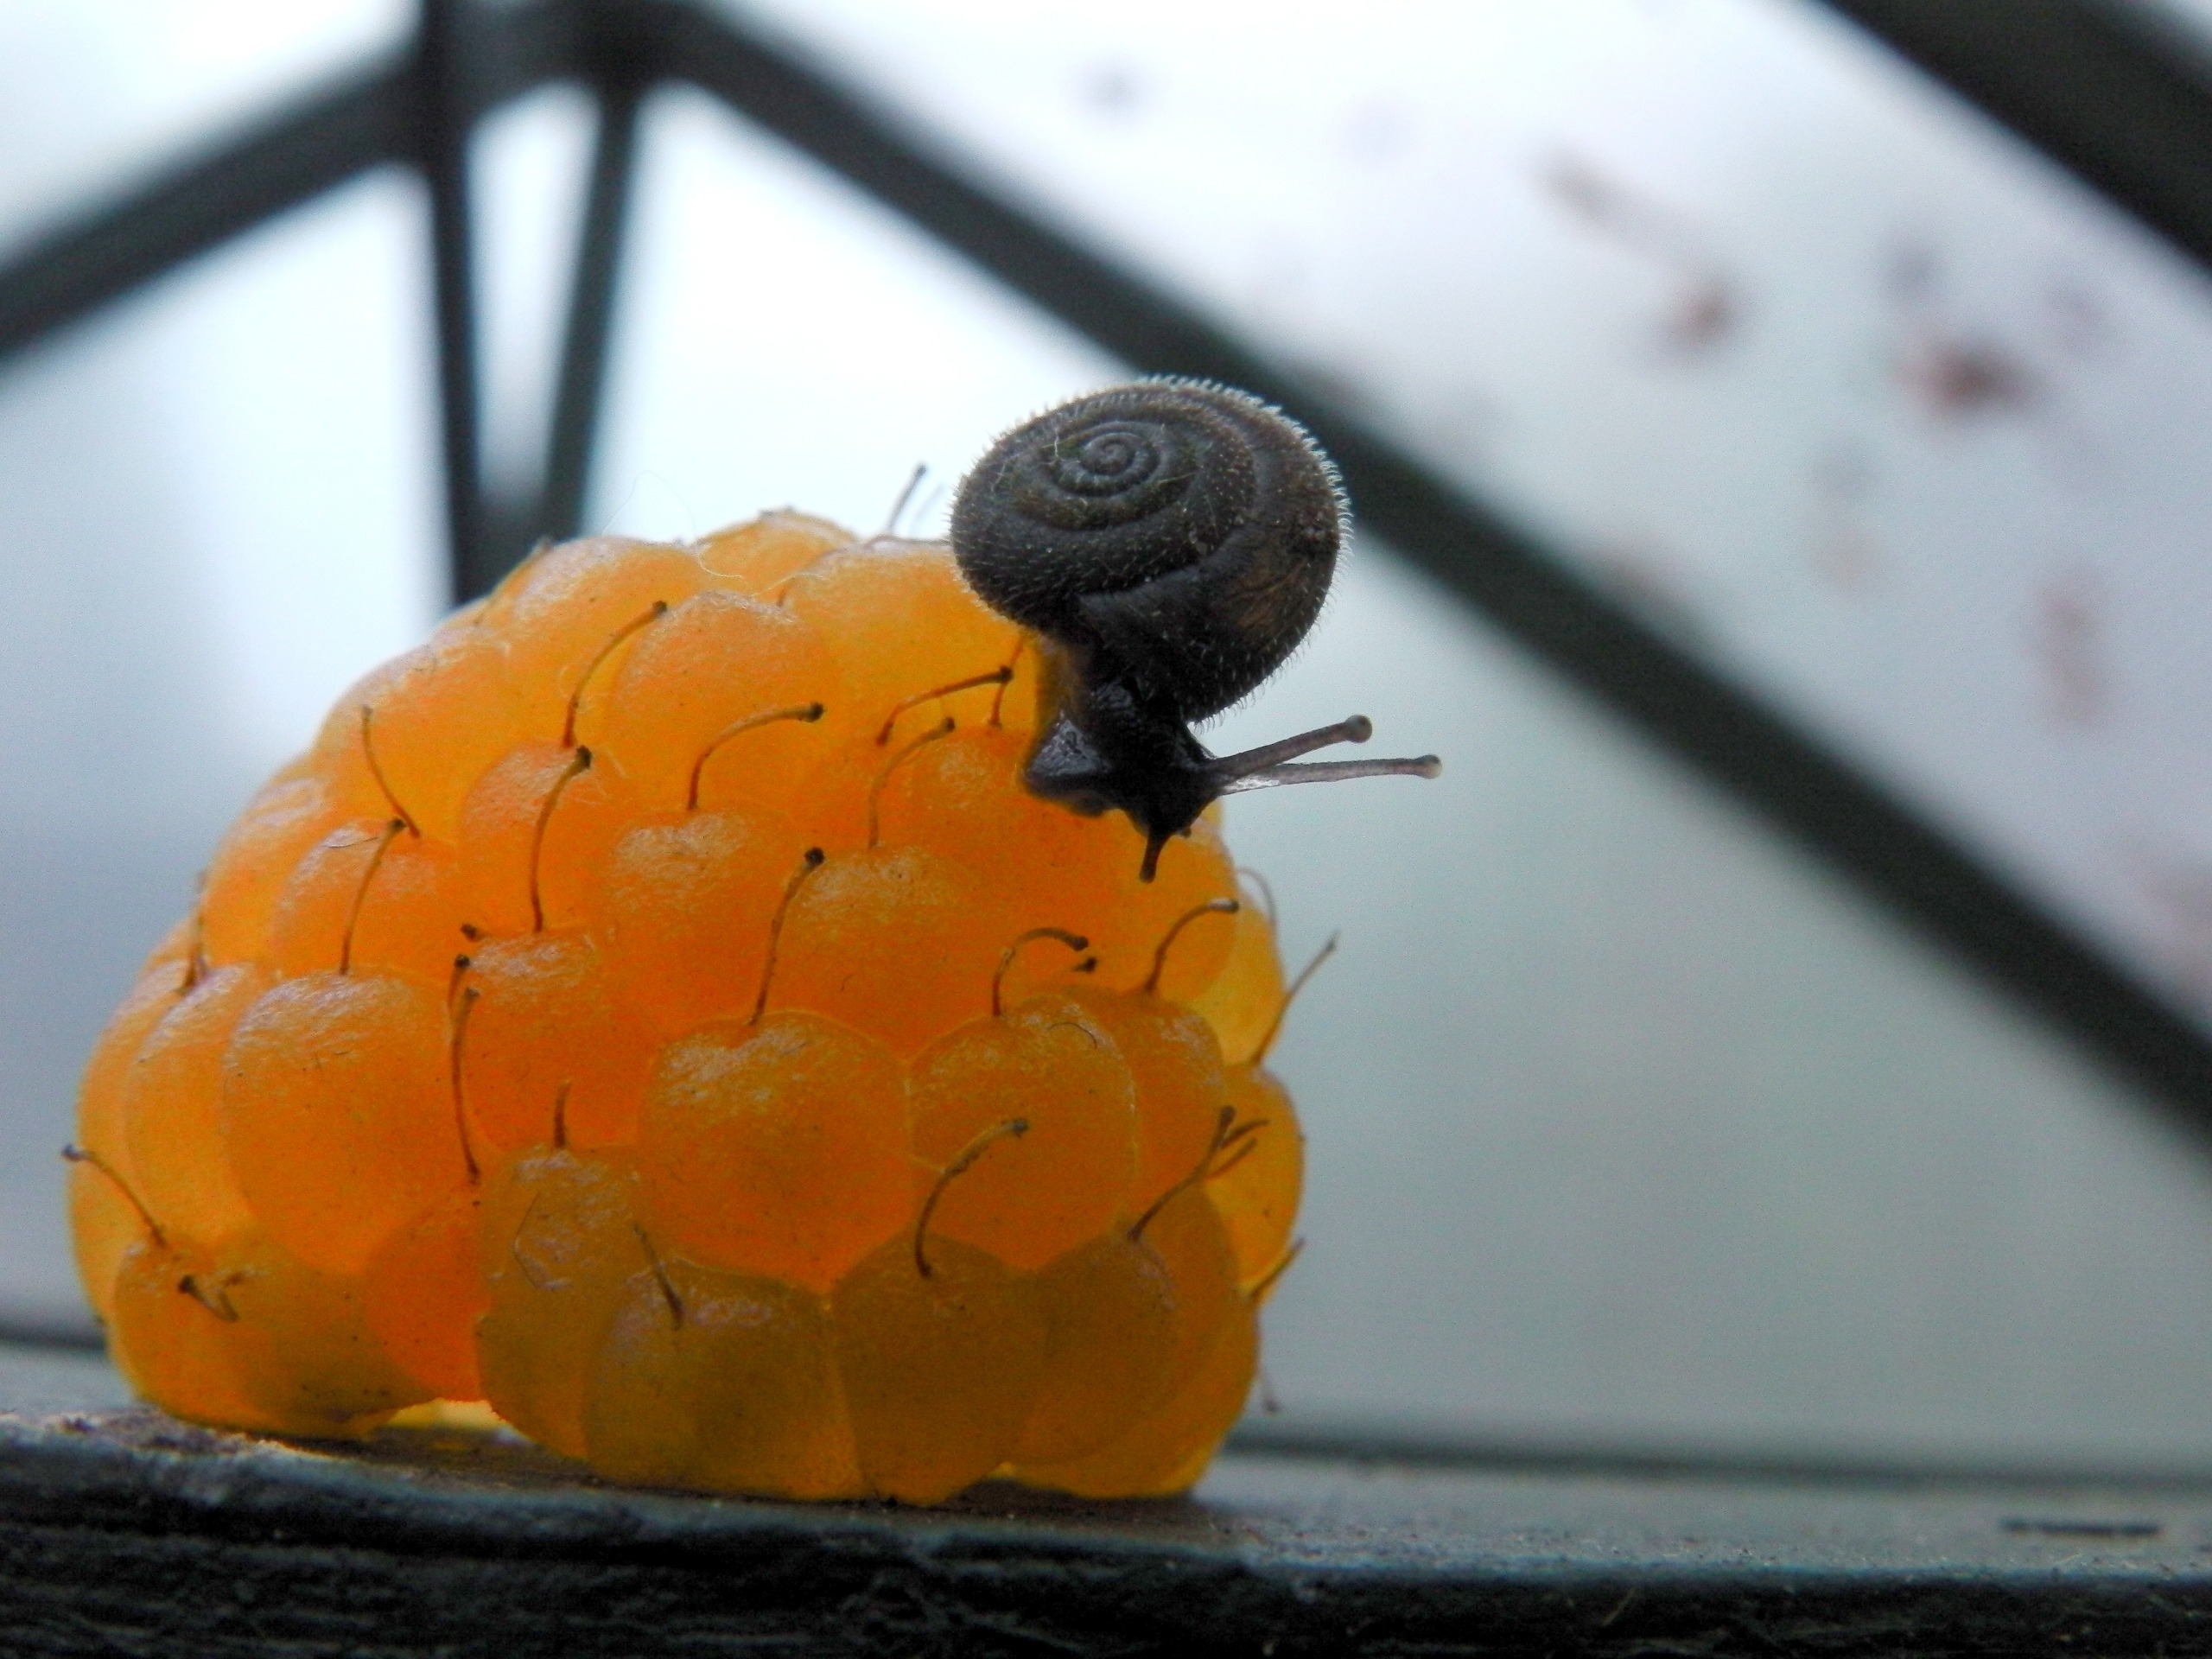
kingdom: Animalia
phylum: Mollusca
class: Gastropoda
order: Stylommatophora
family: Hygromiidae
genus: Trochulus
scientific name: Trochulus hispidus
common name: Håret snegl
